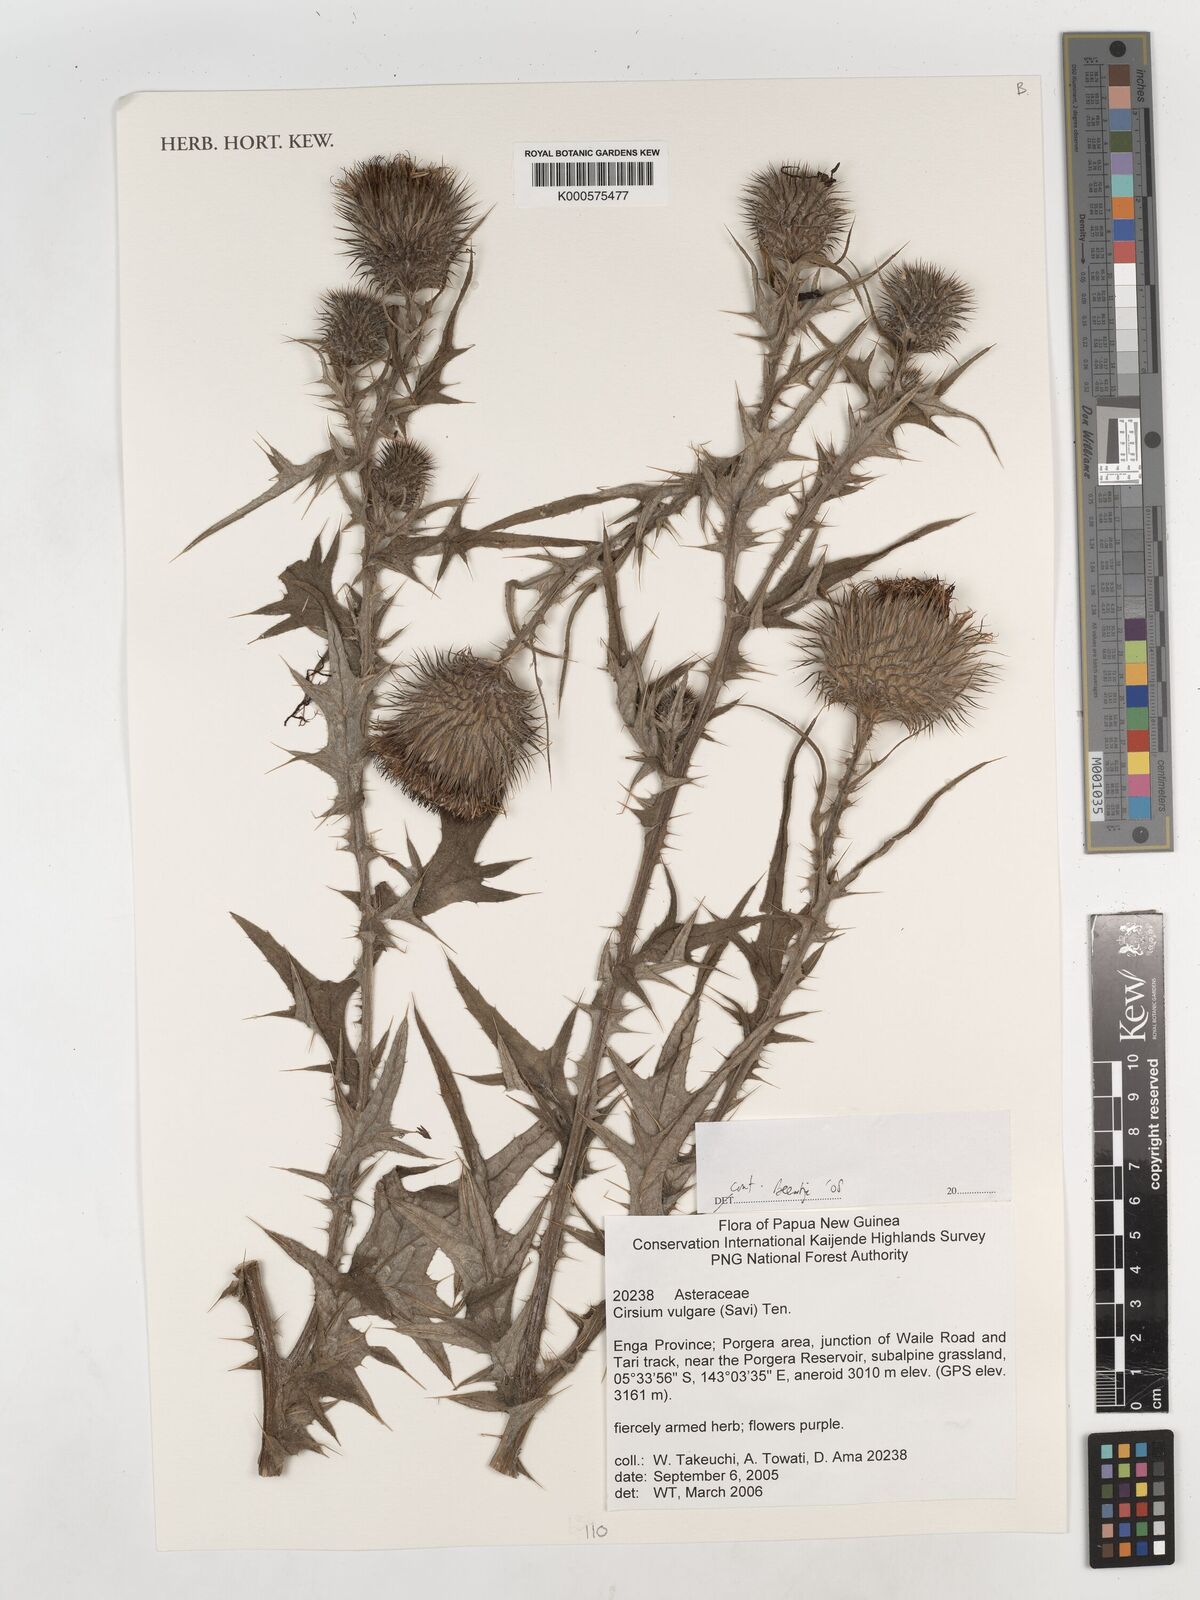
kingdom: Plantae
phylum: Tracheophyta
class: Magnoliopsida
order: Asterales
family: Asteraceae
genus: Cirsium
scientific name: Cirsium vulgare
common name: Bull thistle
